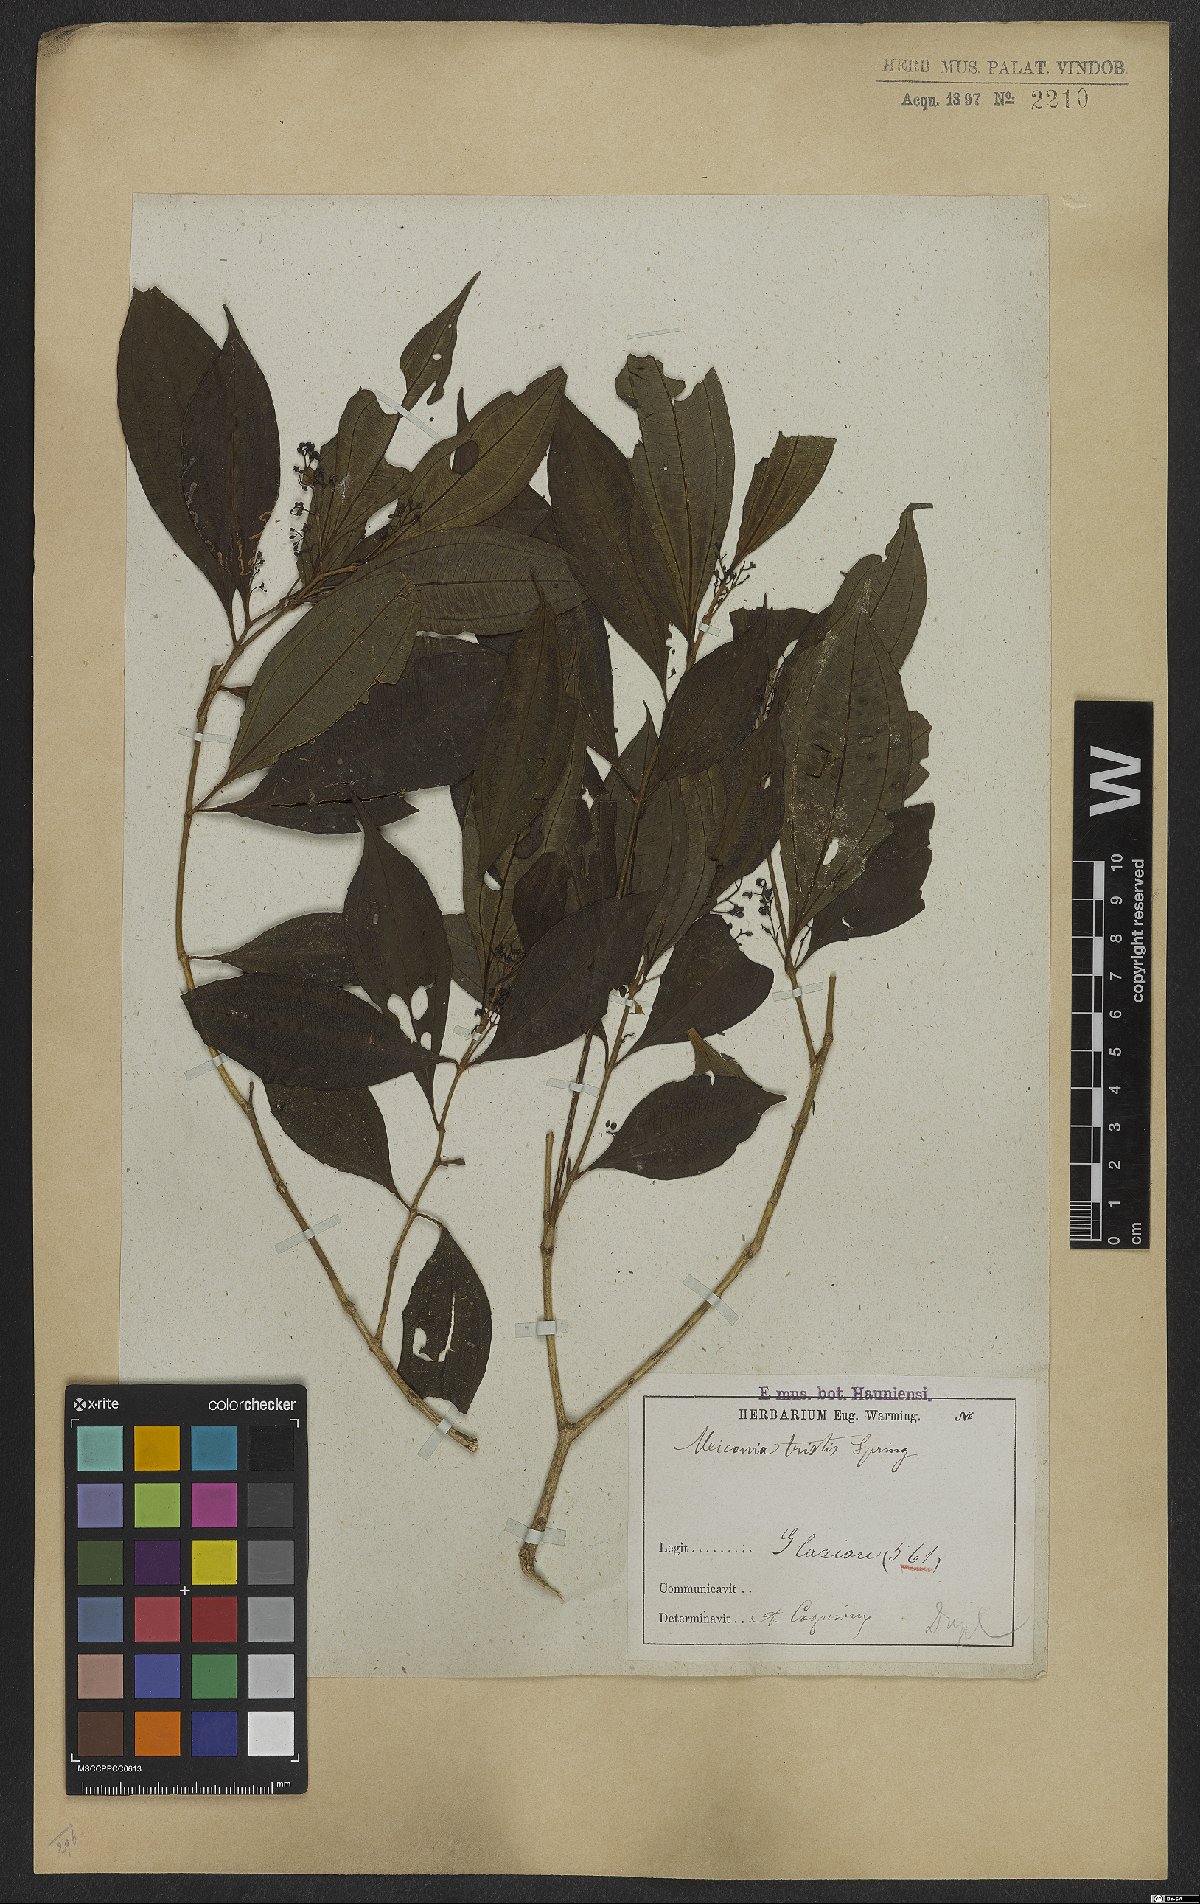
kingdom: Plantae
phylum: Tracheophyta
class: Magnoliopsida
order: Myrtales
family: Melastomataceae
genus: Miconia
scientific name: Miconia tristis
